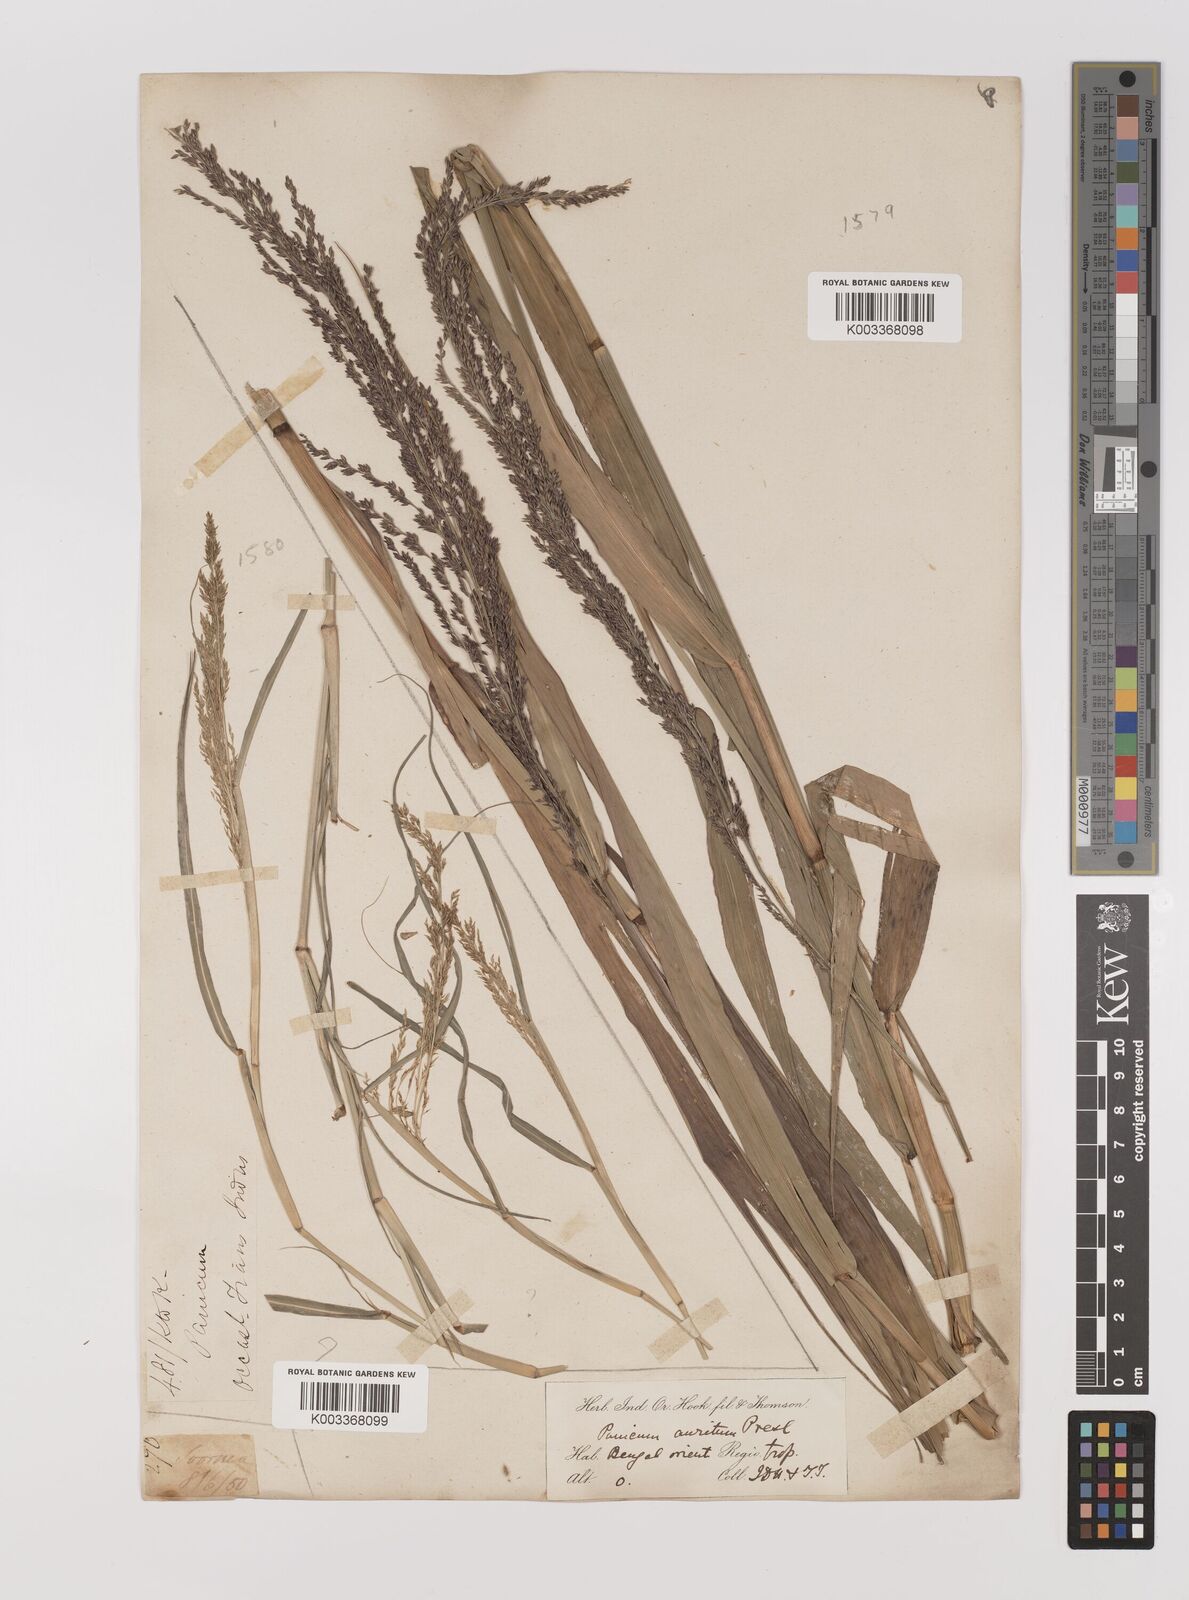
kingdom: Plantae
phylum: Tracheophyta
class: Liliopsida
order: Poales
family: Poaceae
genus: Hymenachne
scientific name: Hymenachne aurita
